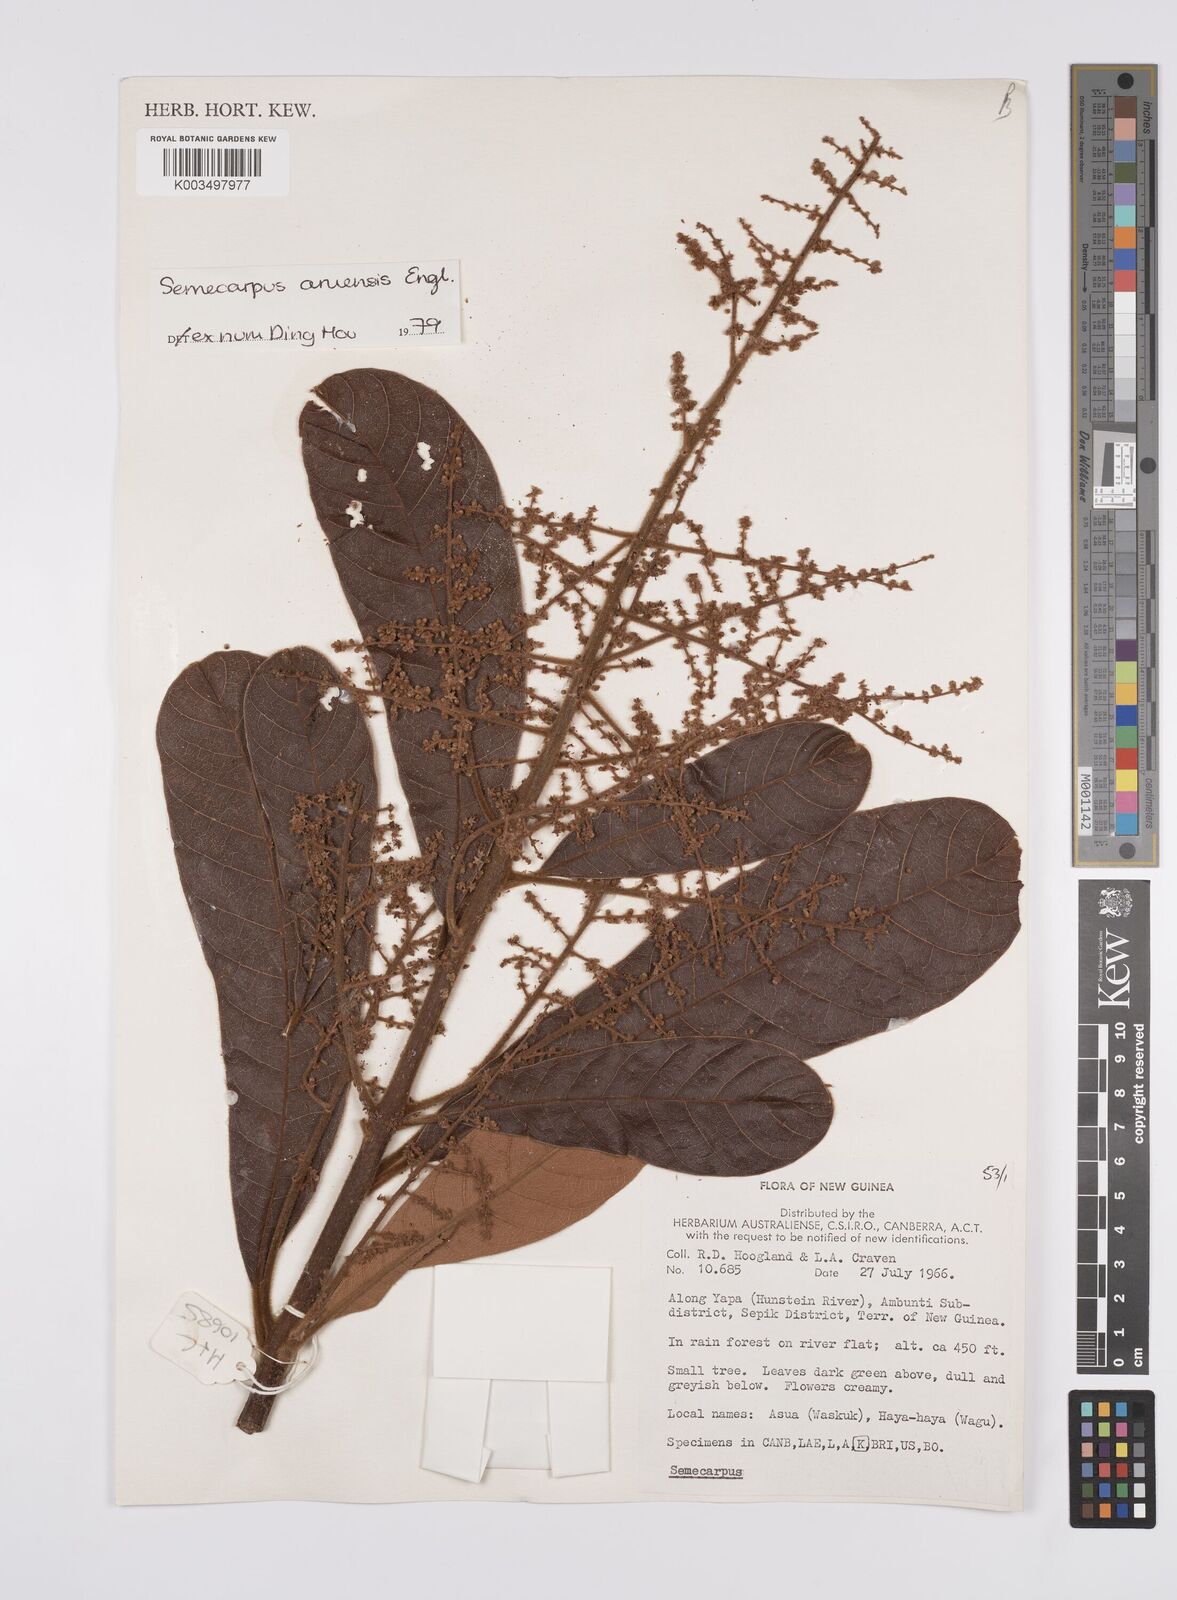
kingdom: Plantae
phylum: Tracheophyta
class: Magnoliopsida
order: Sapindales
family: Anacardiaceae
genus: Semecarpus
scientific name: Semecarpus aruensis
